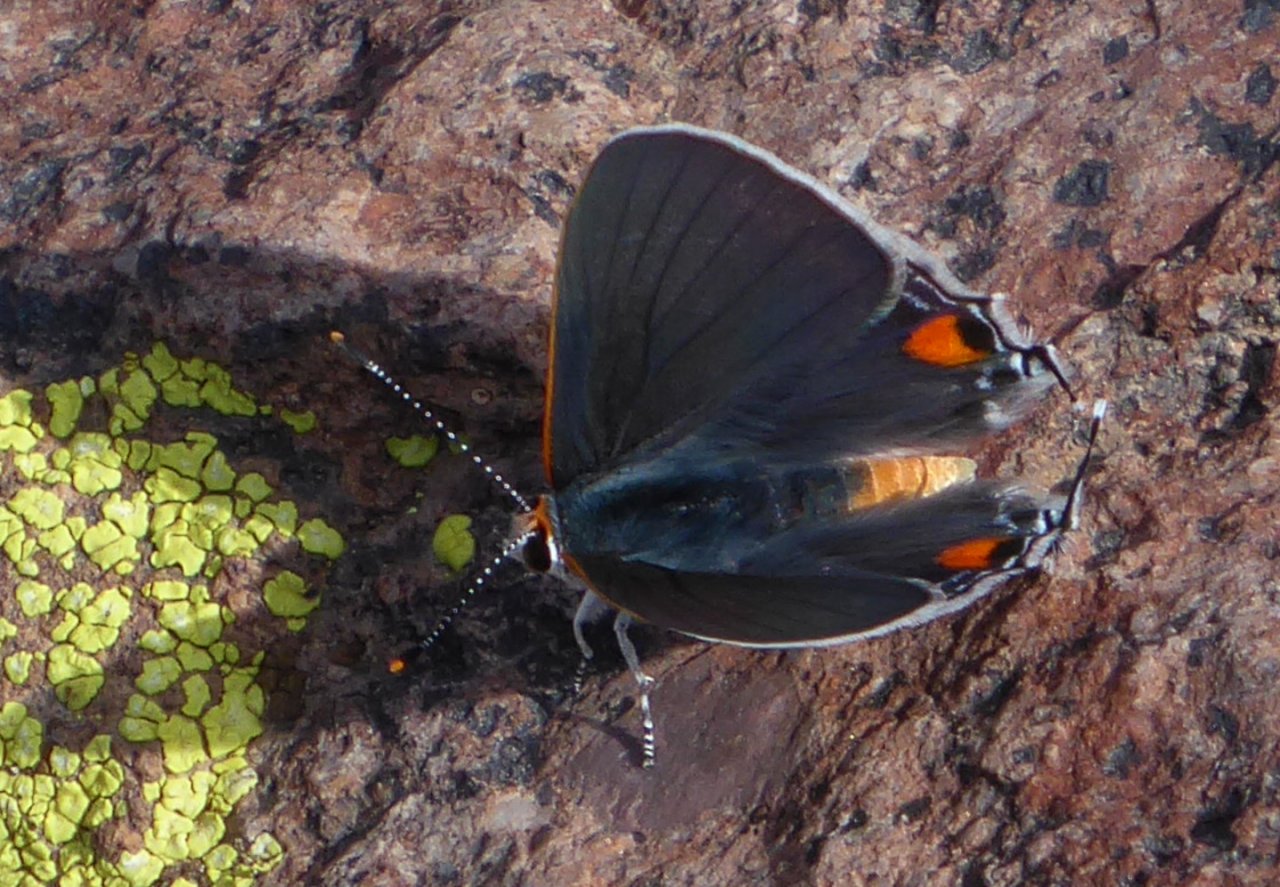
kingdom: Animalia
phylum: Arthropoda
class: Insecta
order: Lepidoptera
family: Lycaenidae
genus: Strymon
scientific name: Strymon melinus
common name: Gray Hairstreak
